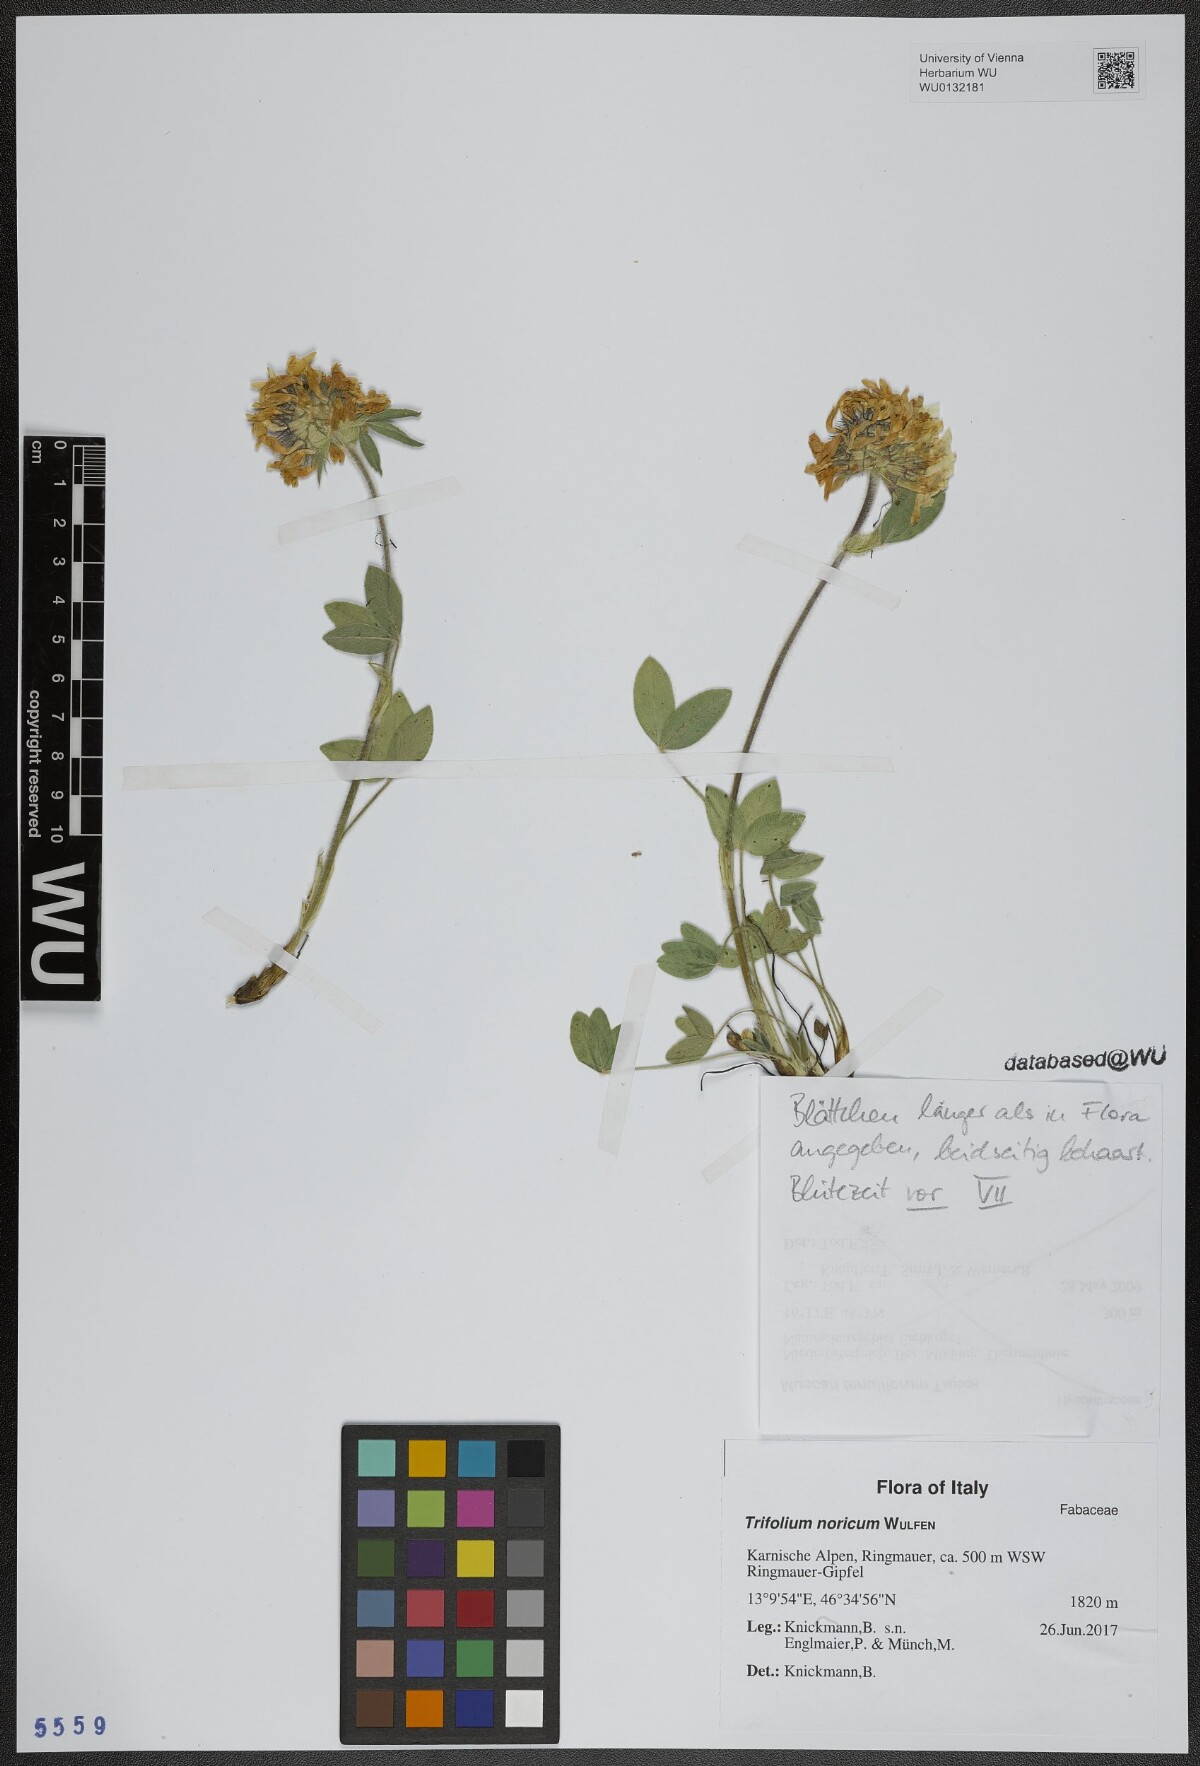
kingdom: Plantae
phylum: Tracheophyta
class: Magnoliopsida
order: Fabales
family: Fabaceae
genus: Trifolium
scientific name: Trifolium noricum
